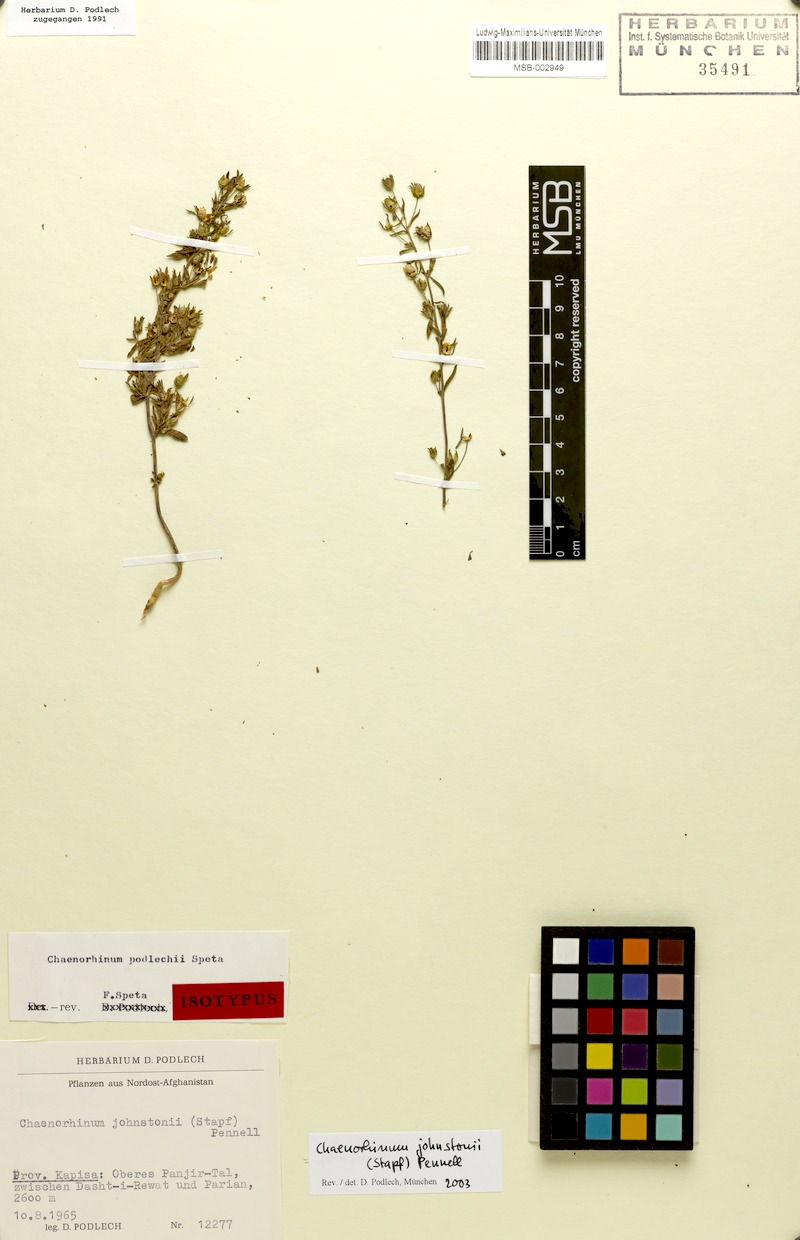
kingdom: Plantae
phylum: Tracheophyta
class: Magnoliopsida
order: Lamiales
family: Plantaginaceae
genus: Chaenorhinum
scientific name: Chaenorhinum johnstonii
